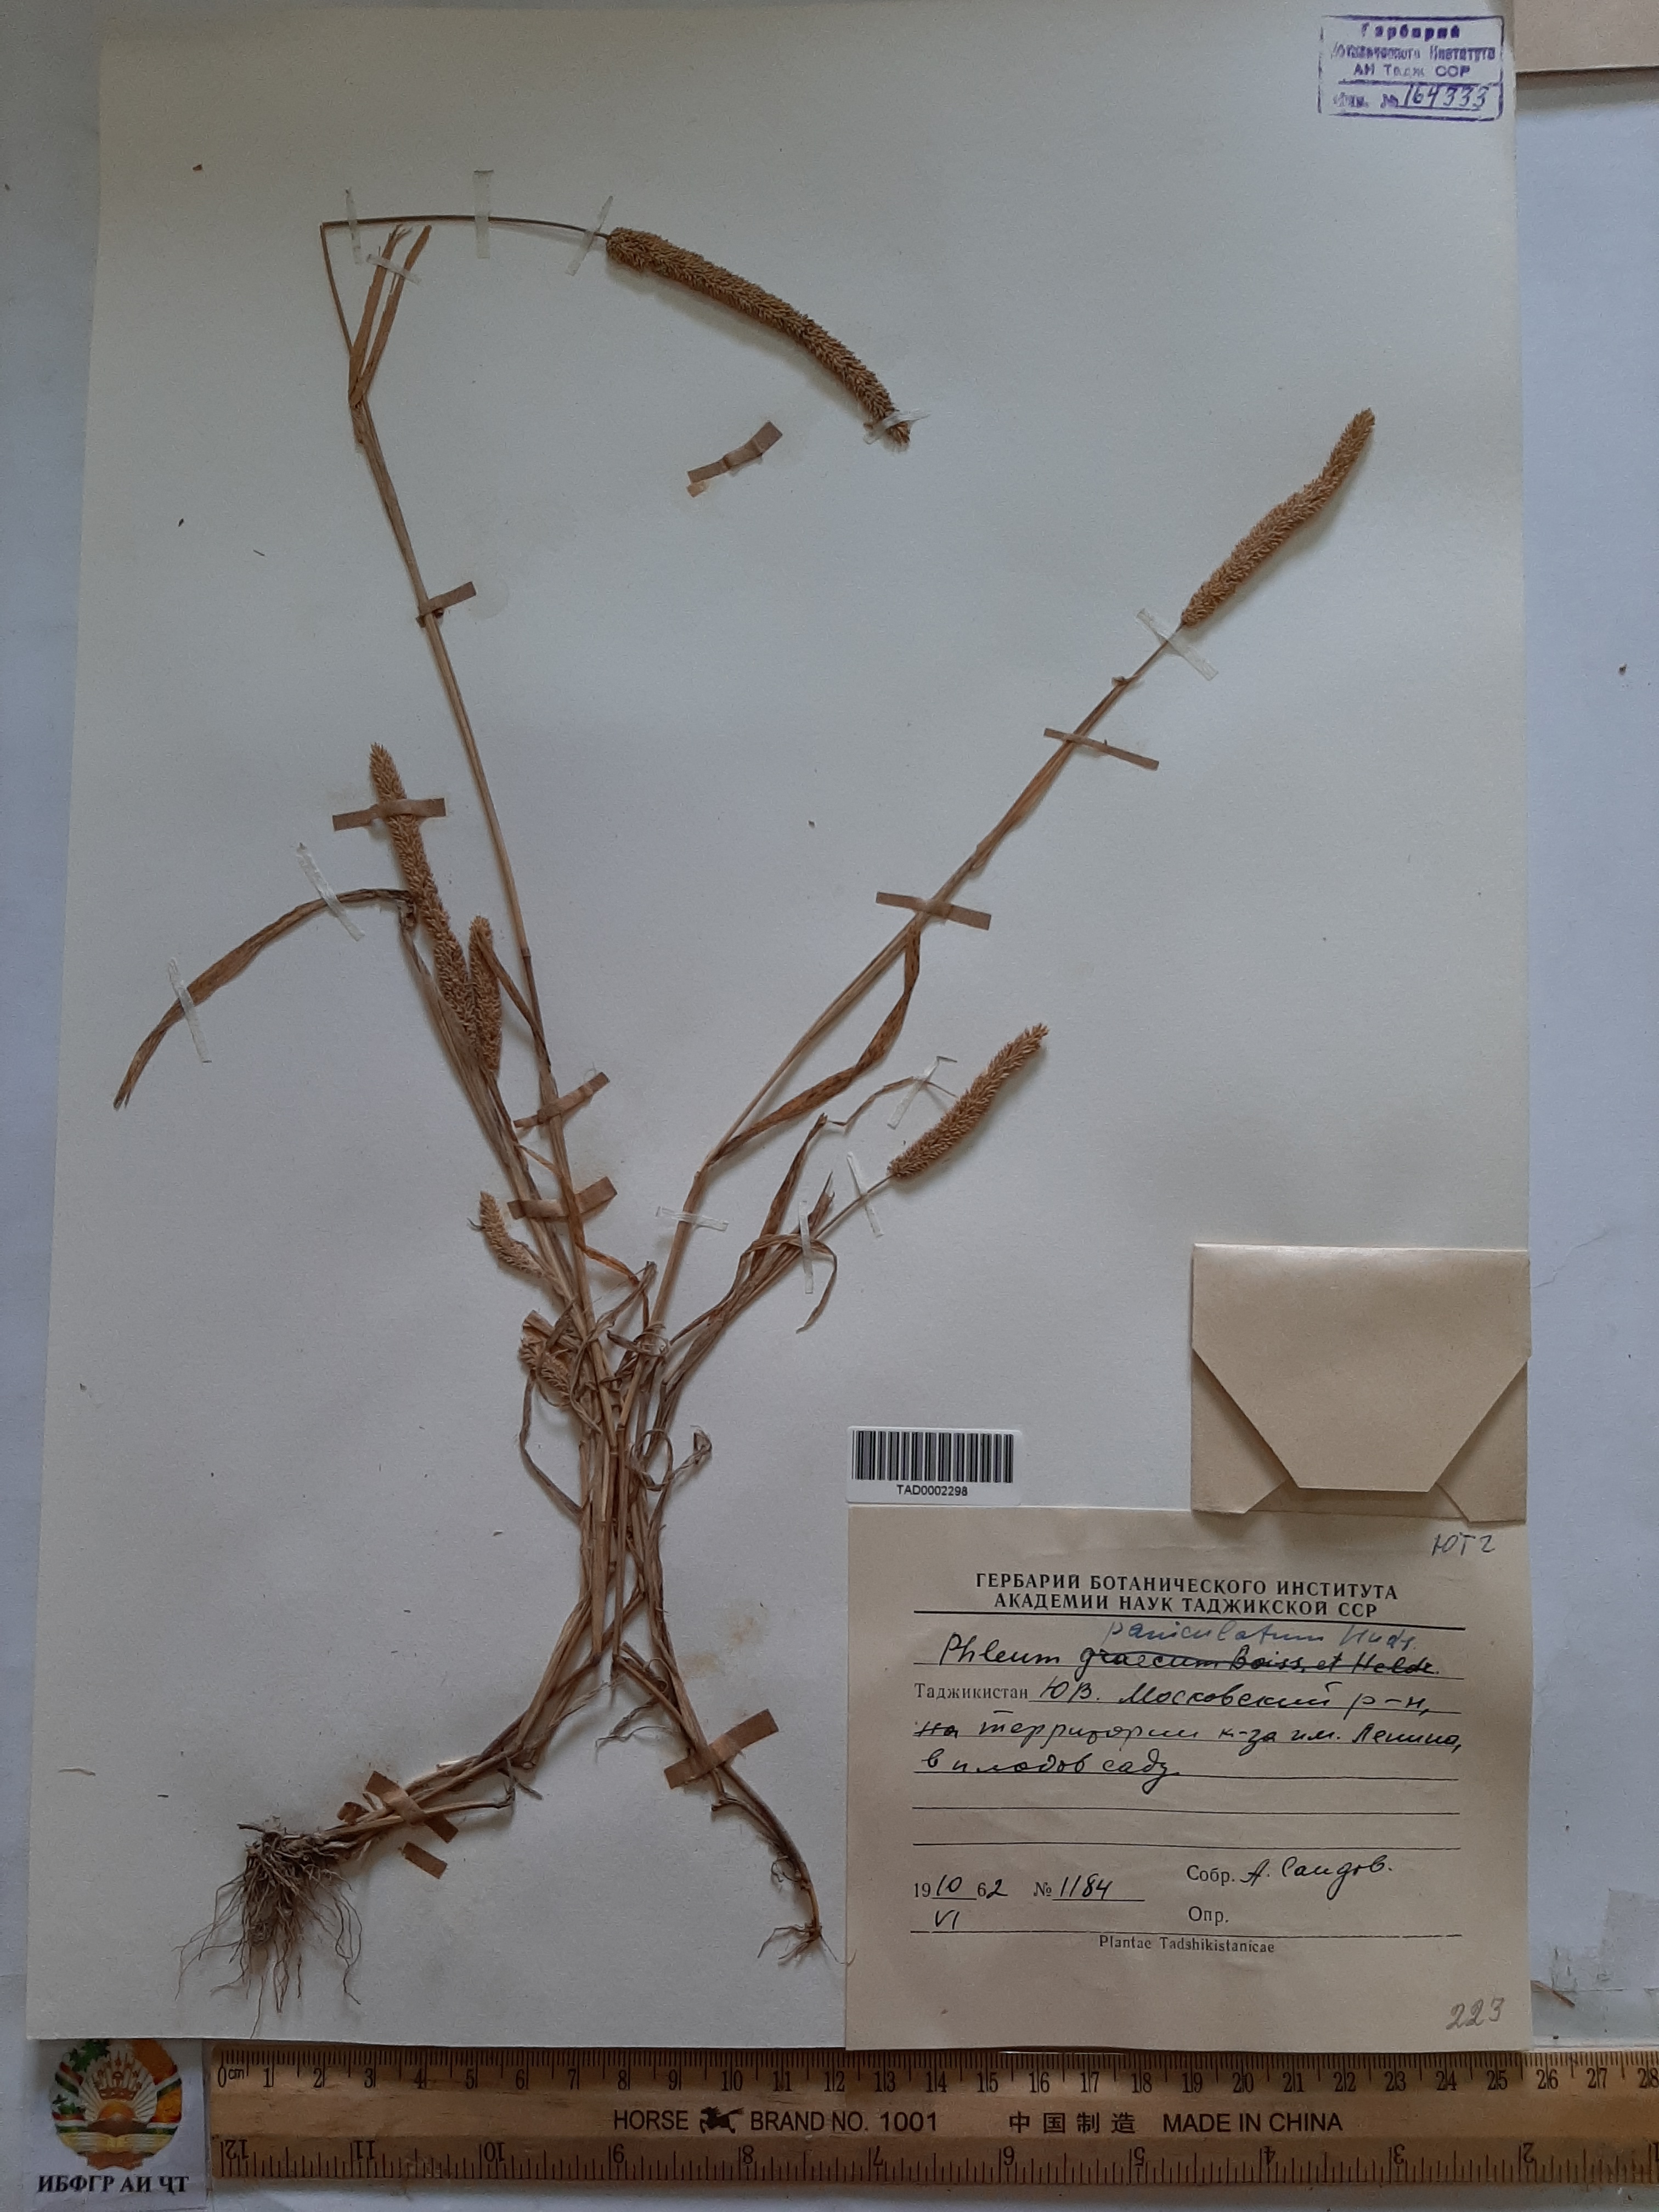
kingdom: Plantae
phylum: Tracheophyta
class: Liliopsida
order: Poales
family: Poaceae
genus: Phleum
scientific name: Phleum paniculatum
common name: British timothy
